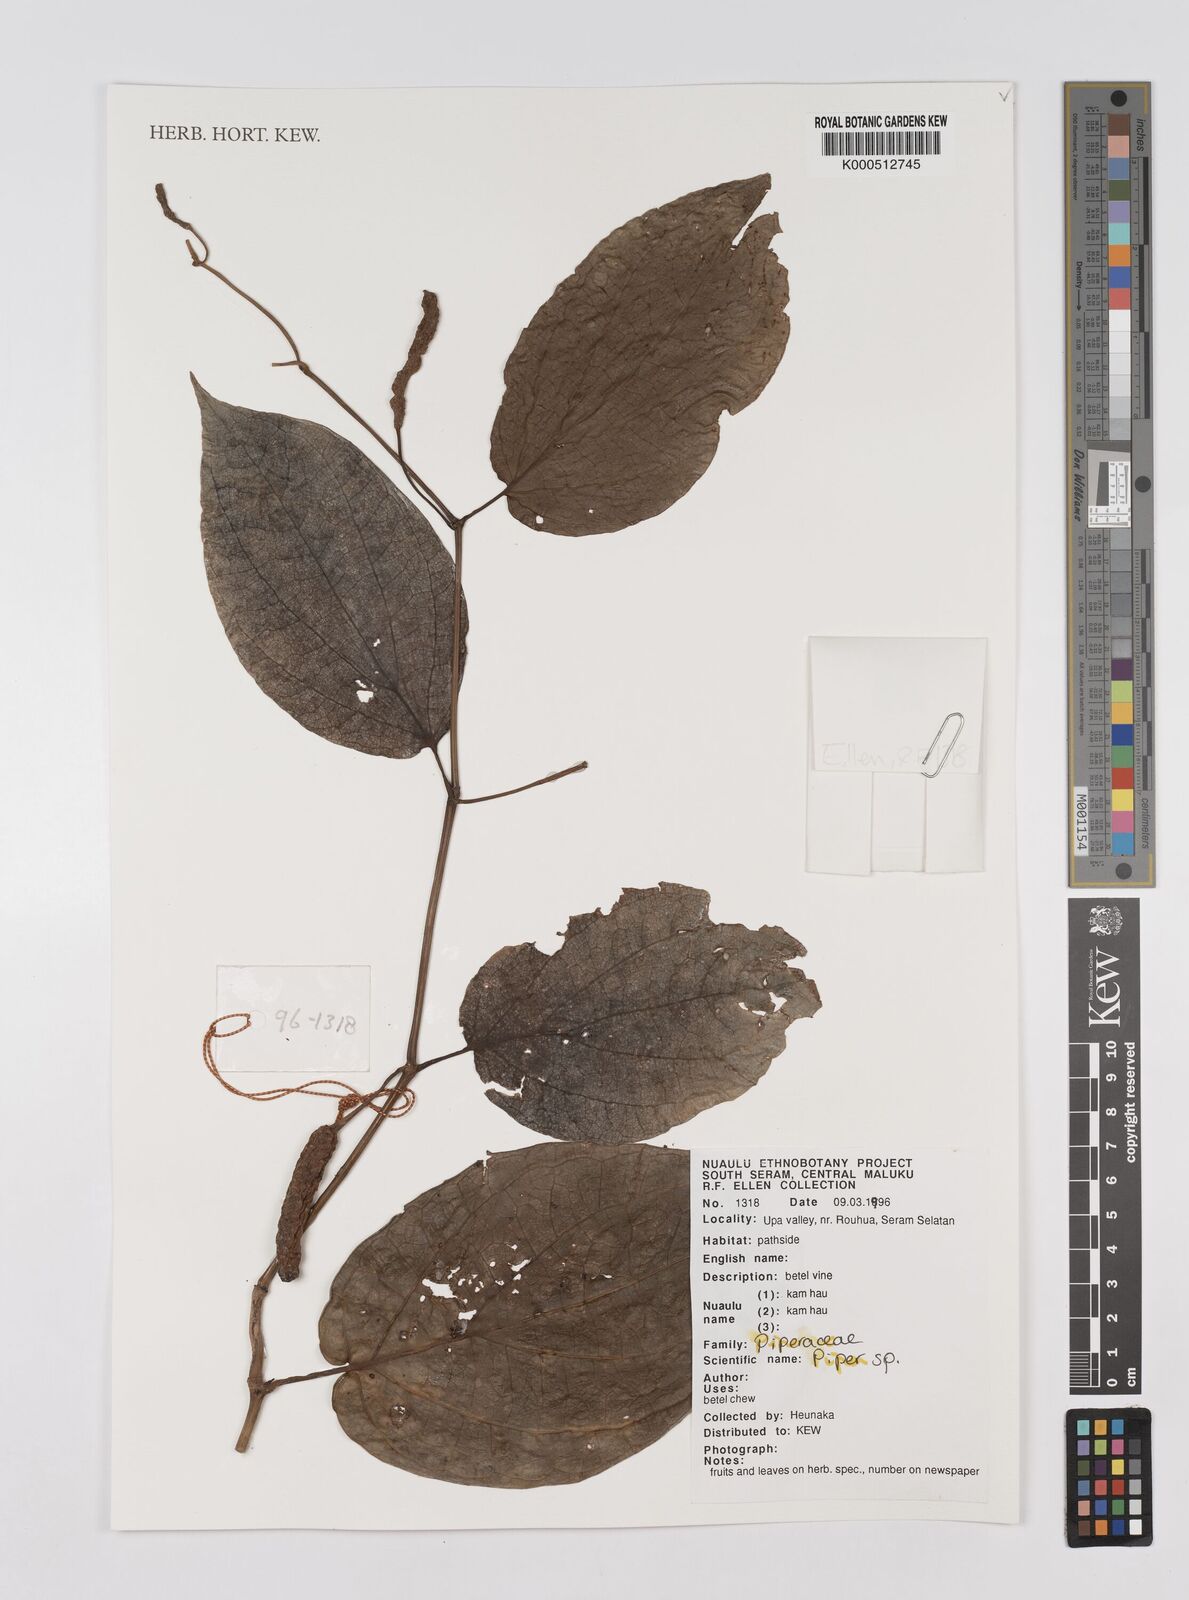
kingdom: Plantae
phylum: Tracheophyta
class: Magnoliopsida
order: Piperales
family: Piperaceae
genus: Piper
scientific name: Piper
